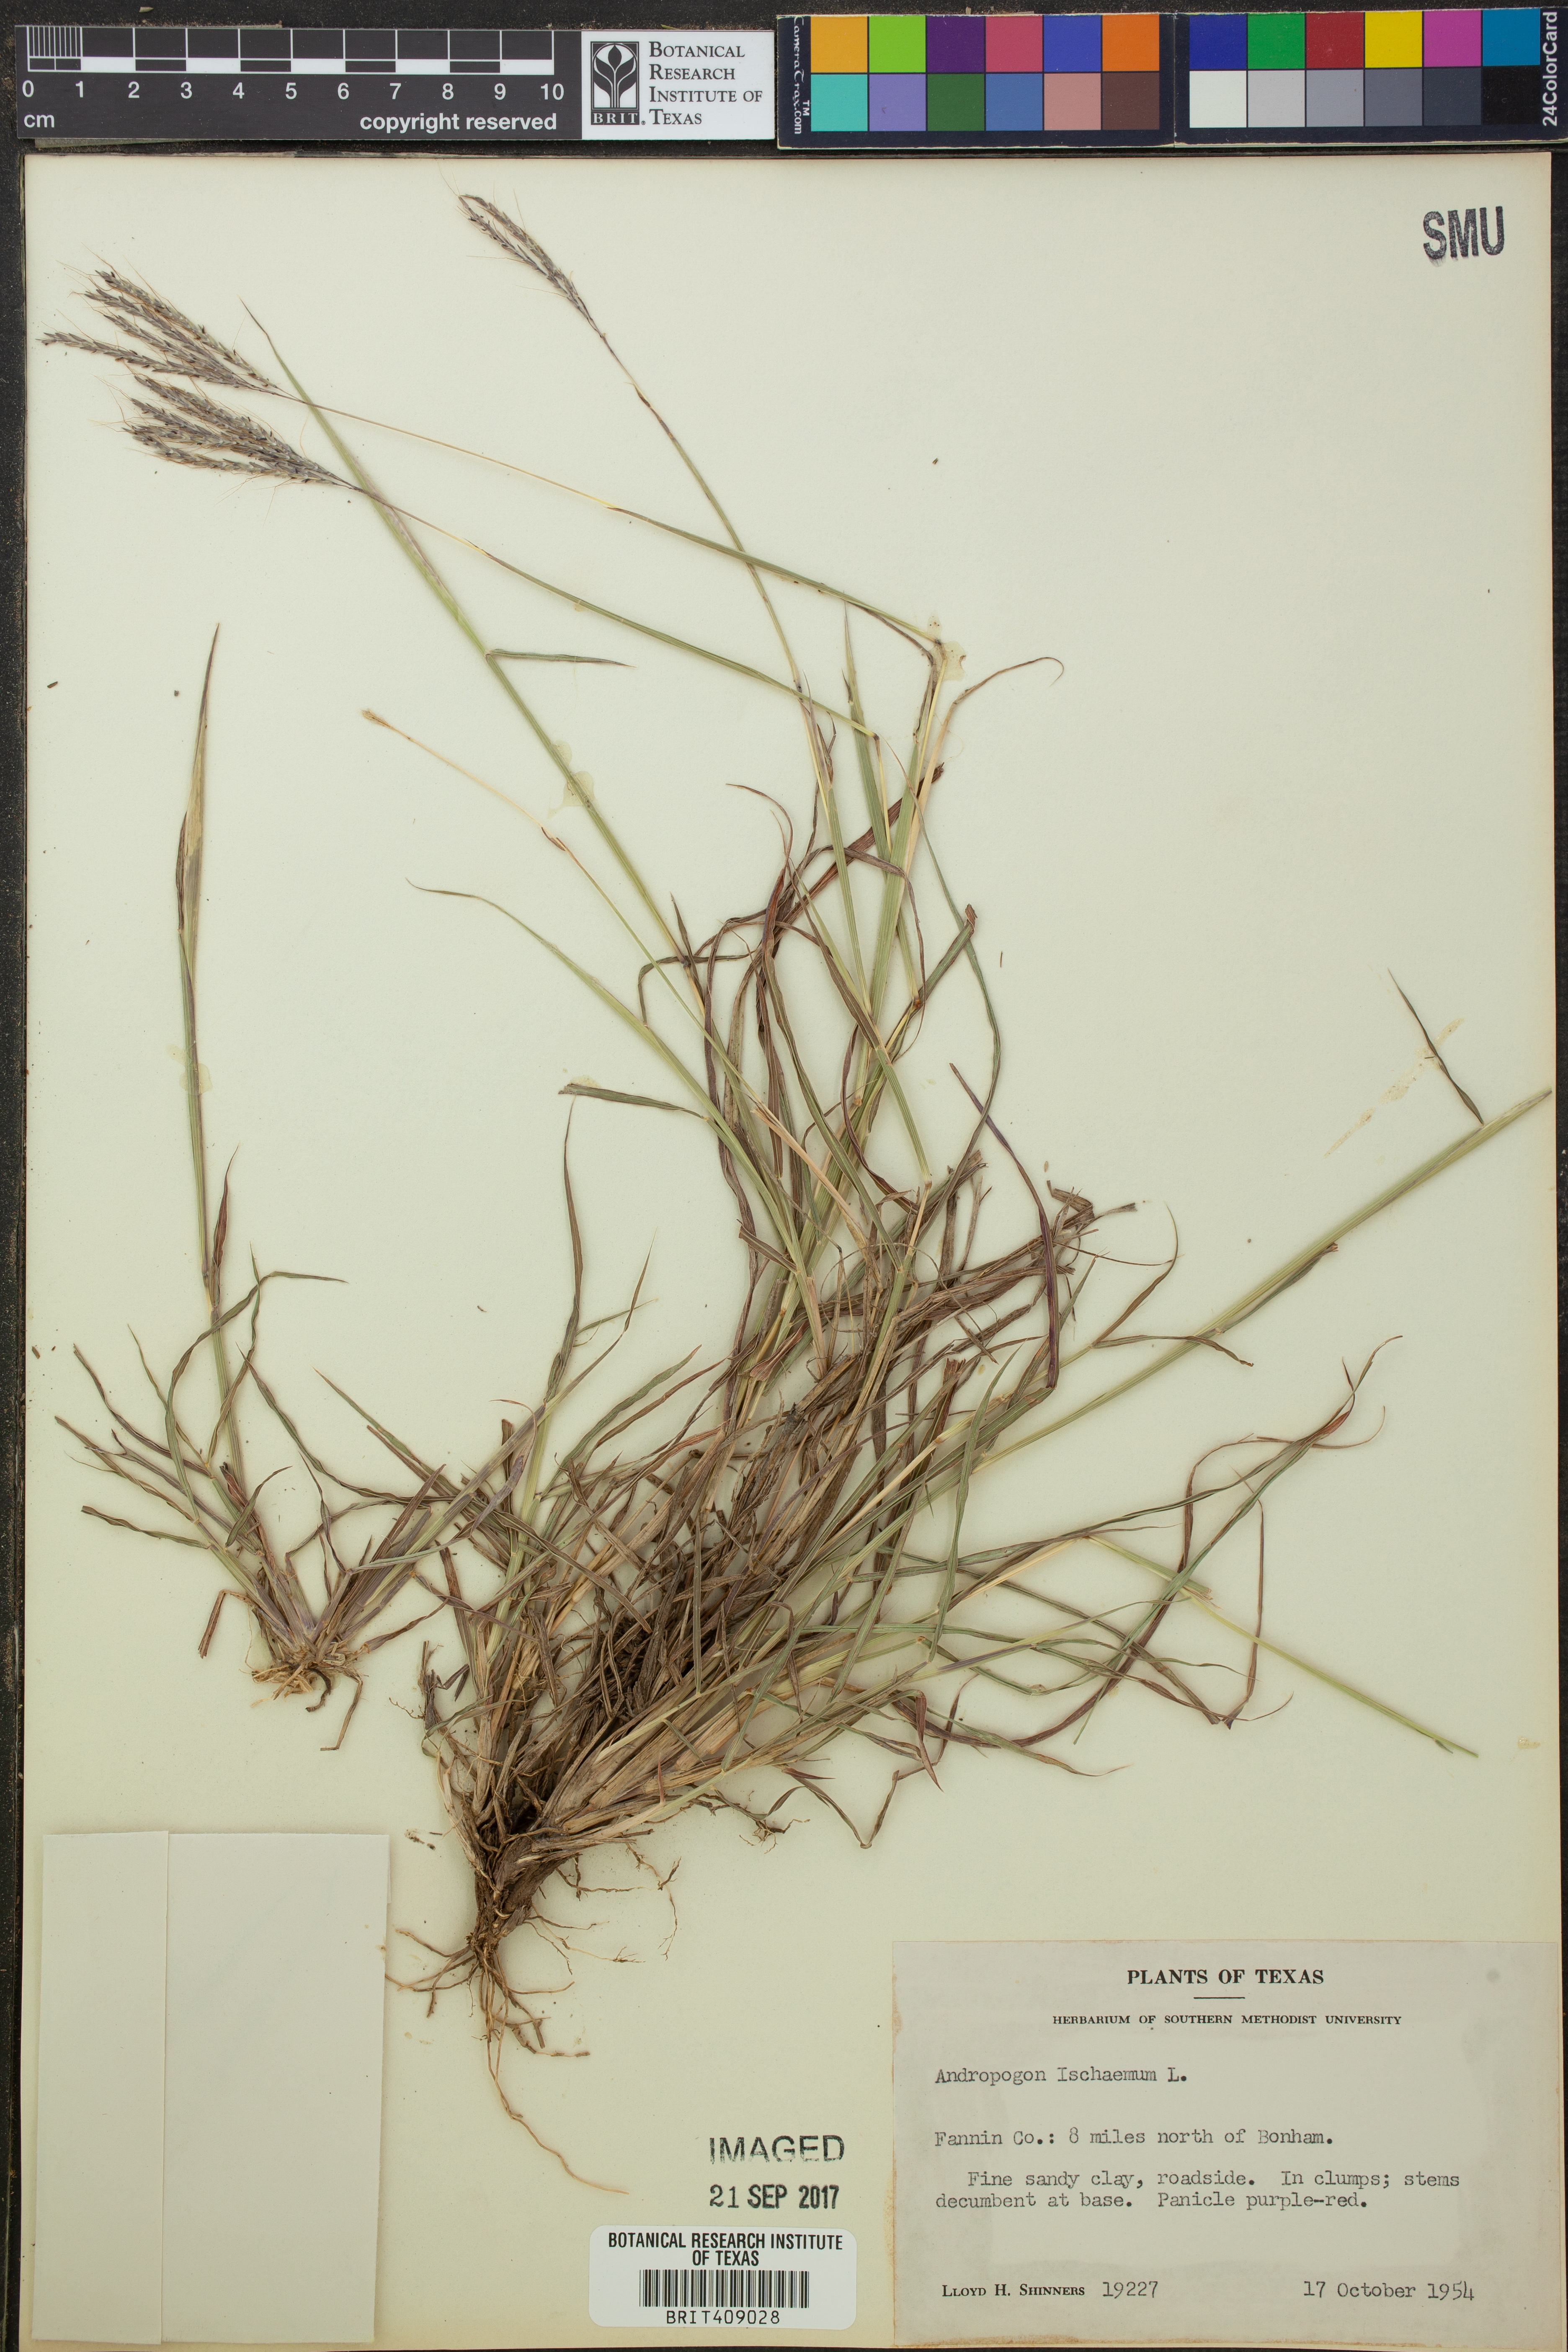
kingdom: Plantae
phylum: Tracheophyta
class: Liliopsida
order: Poales
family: Poaceae
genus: Andropogon
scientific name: Andropogon ischaemum
